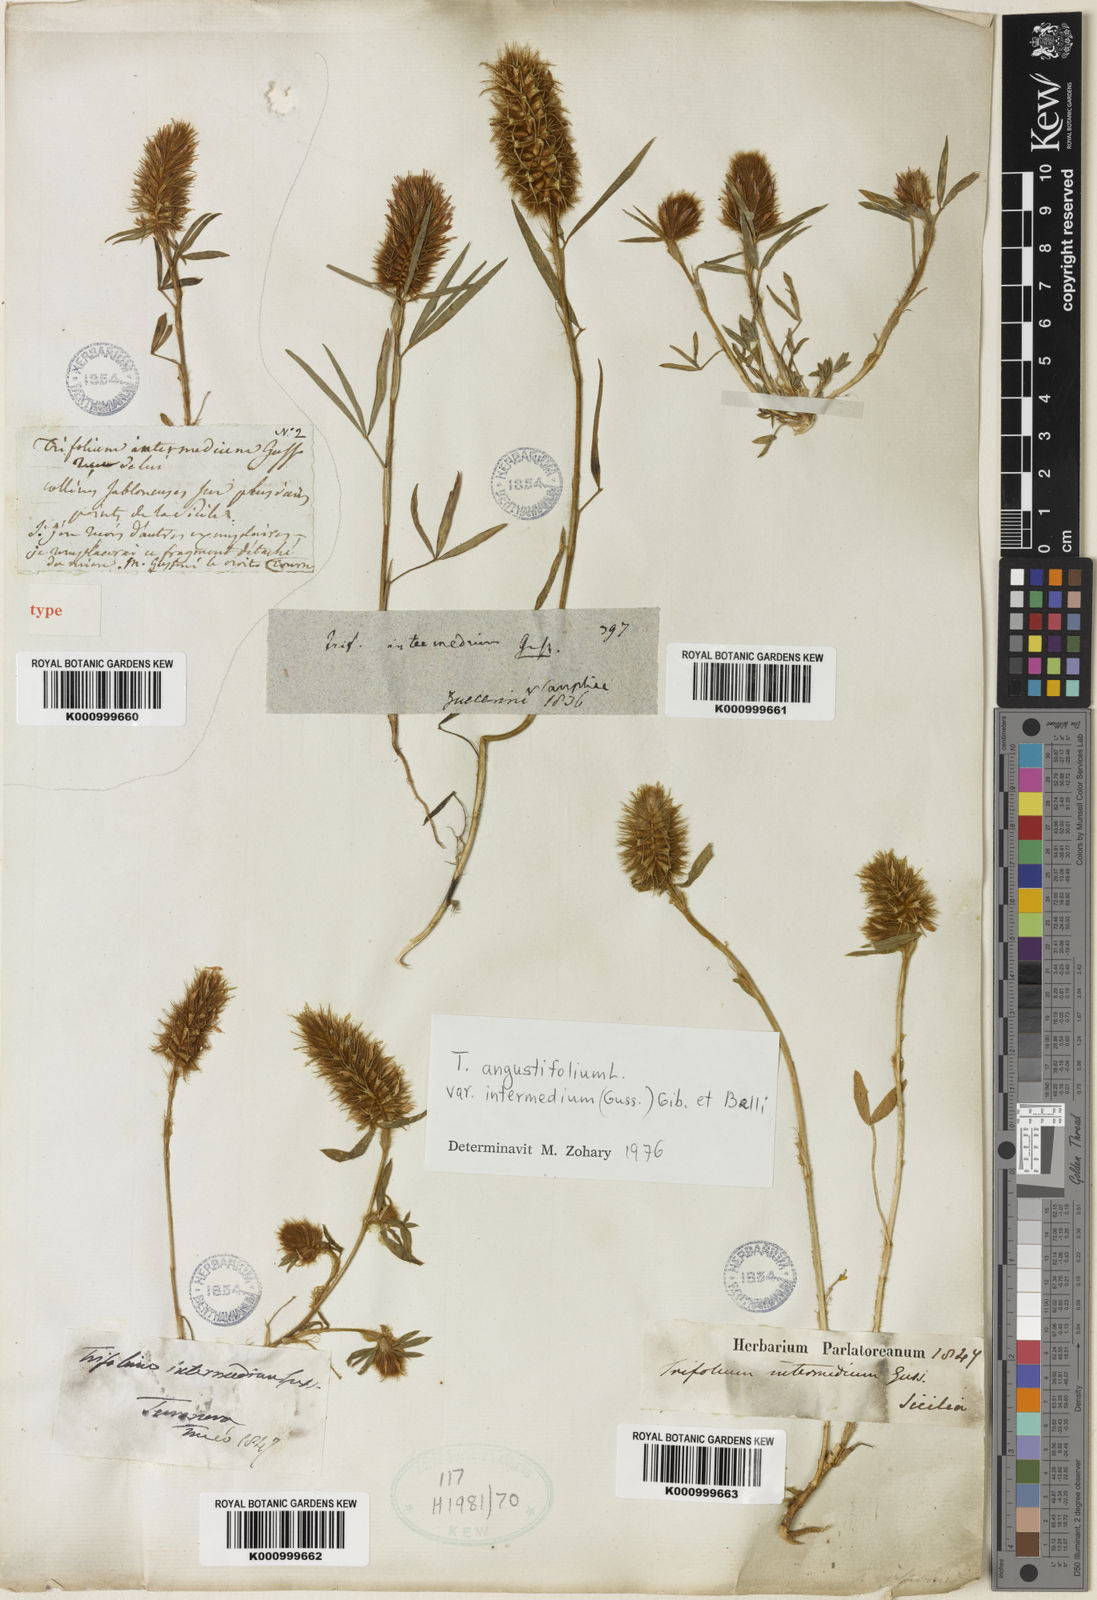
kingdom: Plantae
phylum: Tracheophyta
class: Magnoliopsida
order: Fabales
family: Fabaceae
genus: Trifolium
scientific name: Trifolium angustifolium
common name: Narrow clover
